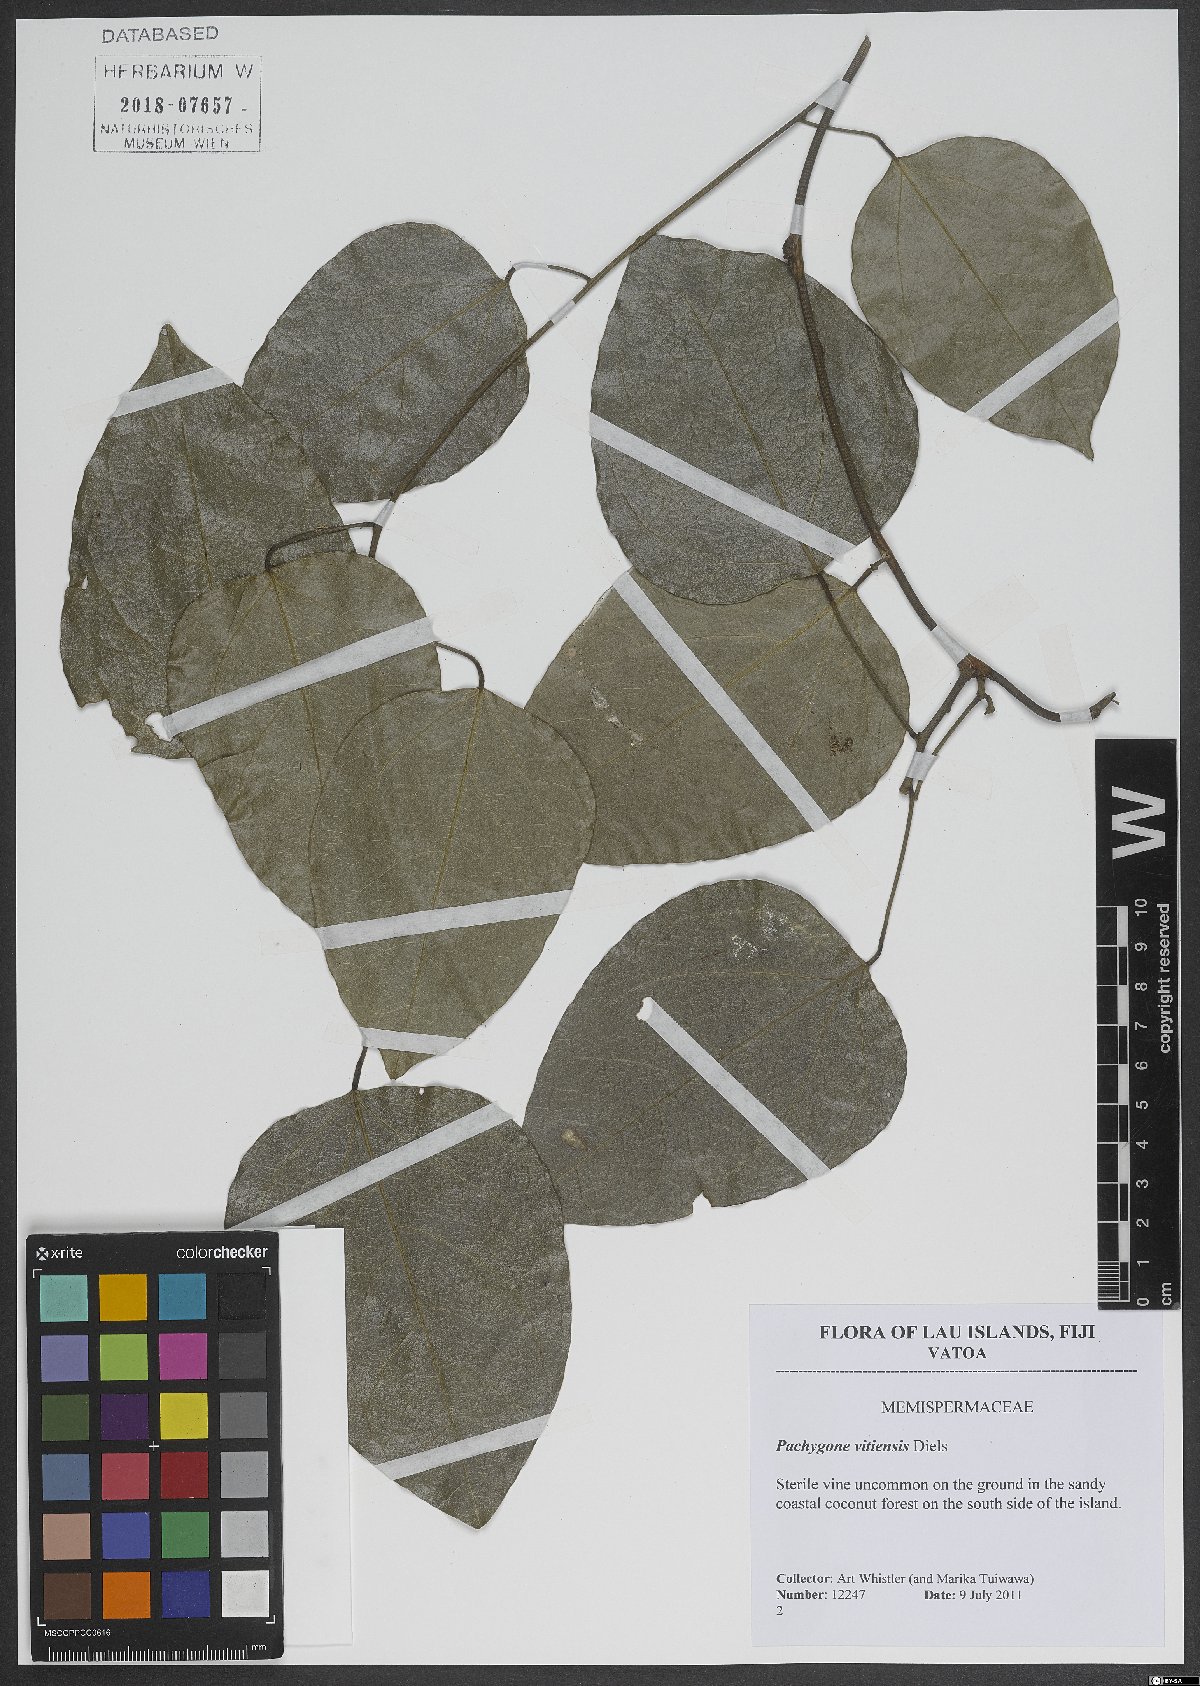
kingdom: Plantae
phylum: Tracheophyta
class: Magnoliopsida
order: Ranunculales
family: Menispermaceae
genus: Pachygone
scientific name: Pachygone vitiensis
